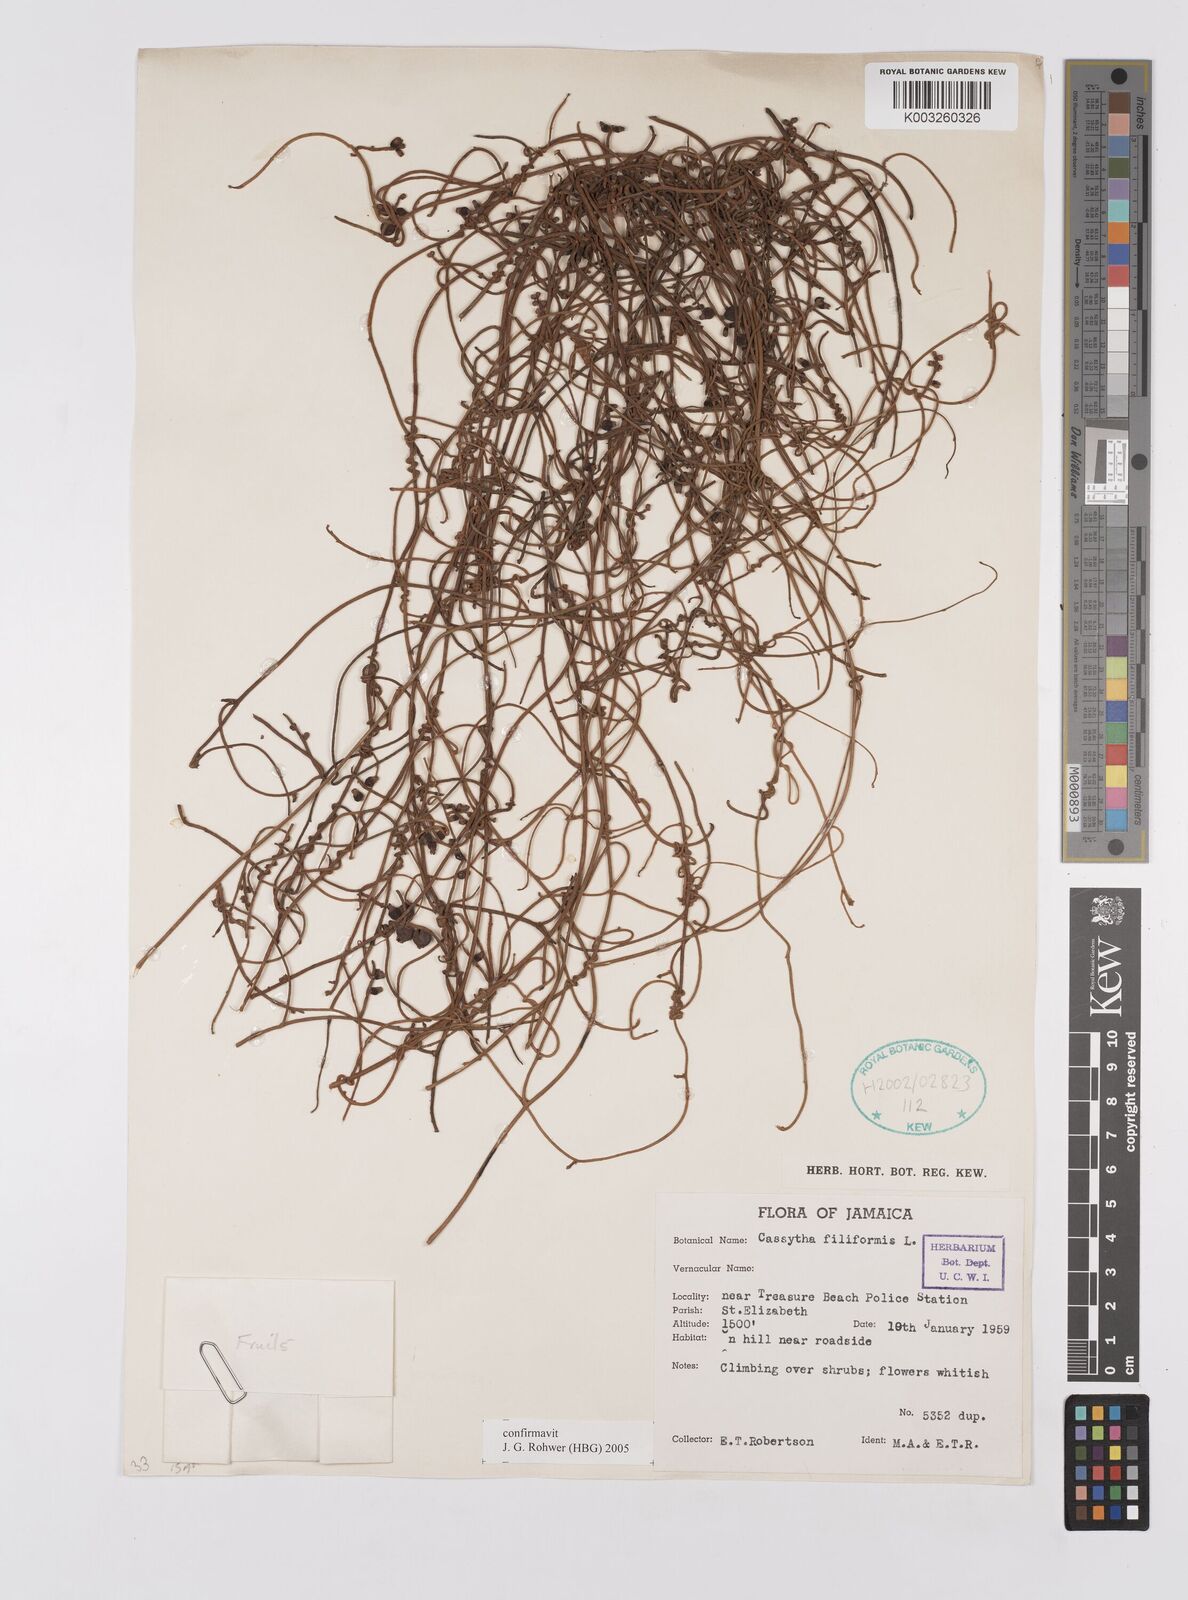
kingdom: Plantae
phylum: Tracheophyta
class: Magnoliopsida
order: Laurales
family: Lauraceae
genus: Cassytha
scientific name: Cassytha filiformis
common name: Dodder-laurel
